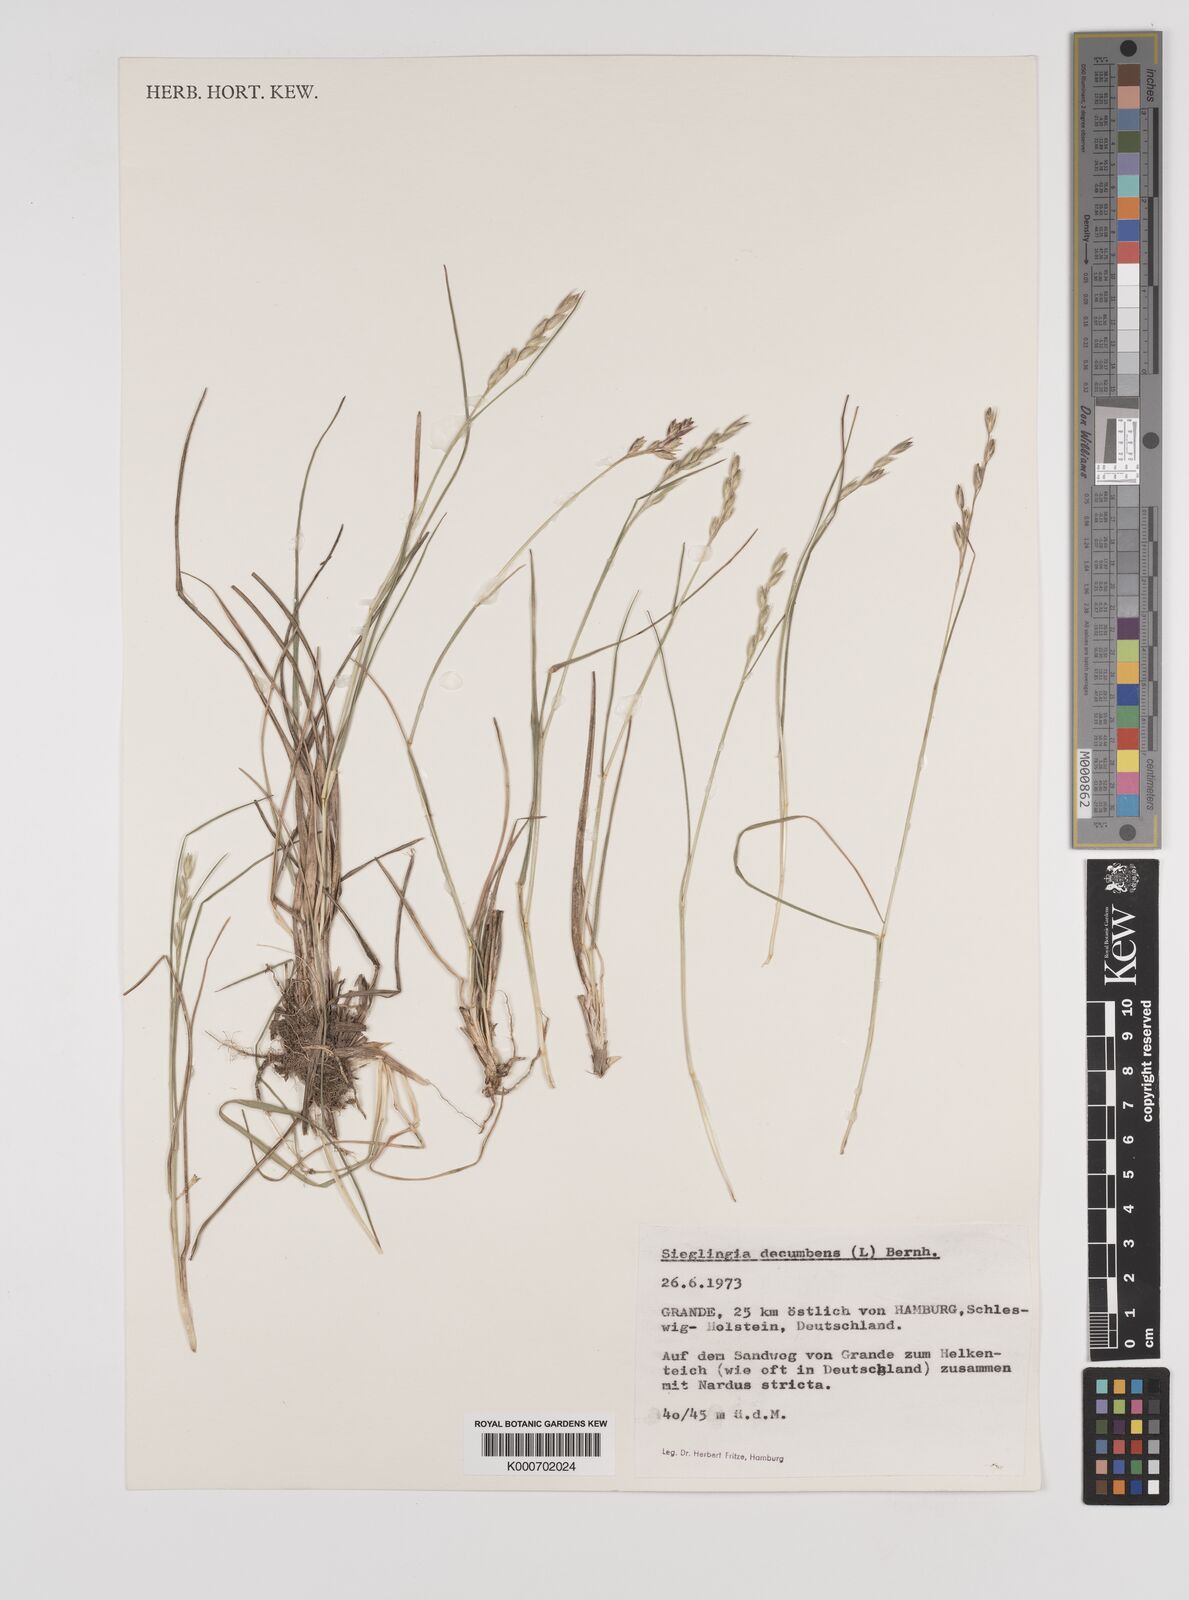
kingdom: Plantae
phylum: Tracheophyta
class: Liliopsida
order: Poales
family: Poaceae
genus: Danthonia
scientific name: Danthonia decumbens
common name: Common heathgrass
